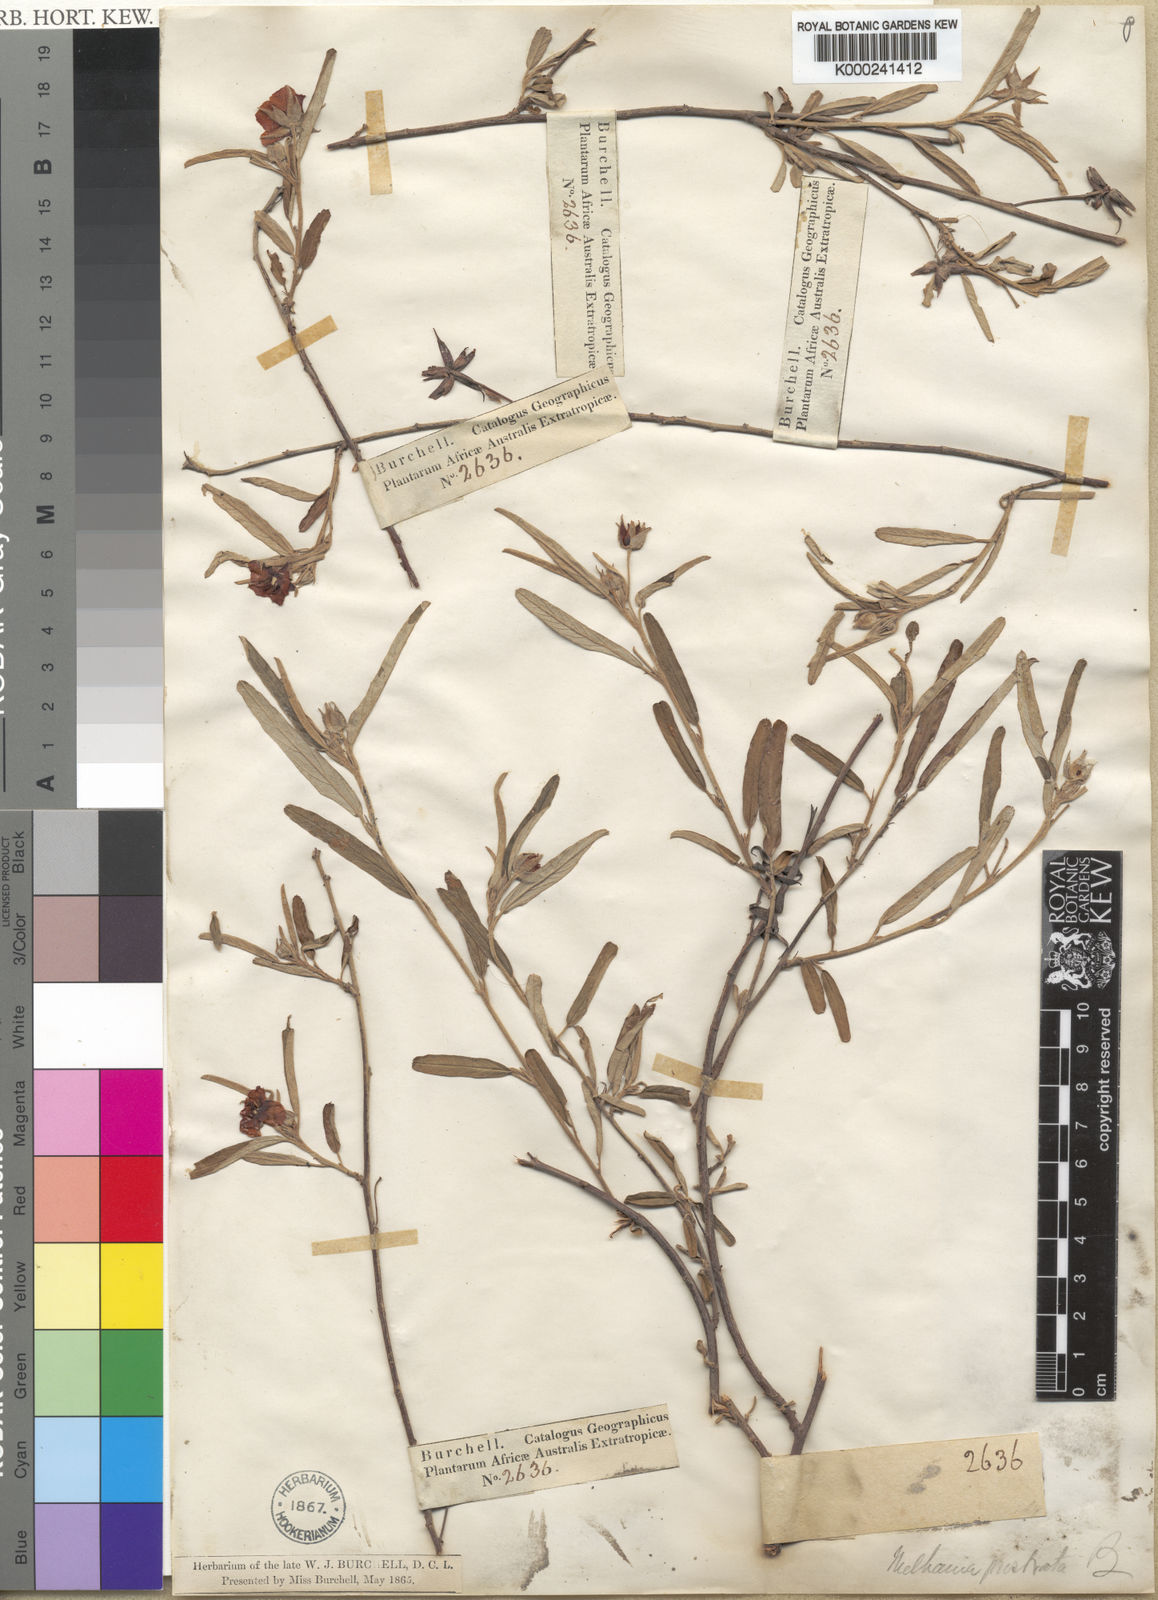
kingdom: Plantae
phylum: Tracheophyta
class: Magnoliopsida
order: Malvales
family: Malvaceae
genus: Melhania
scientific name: Melhania prostrata
